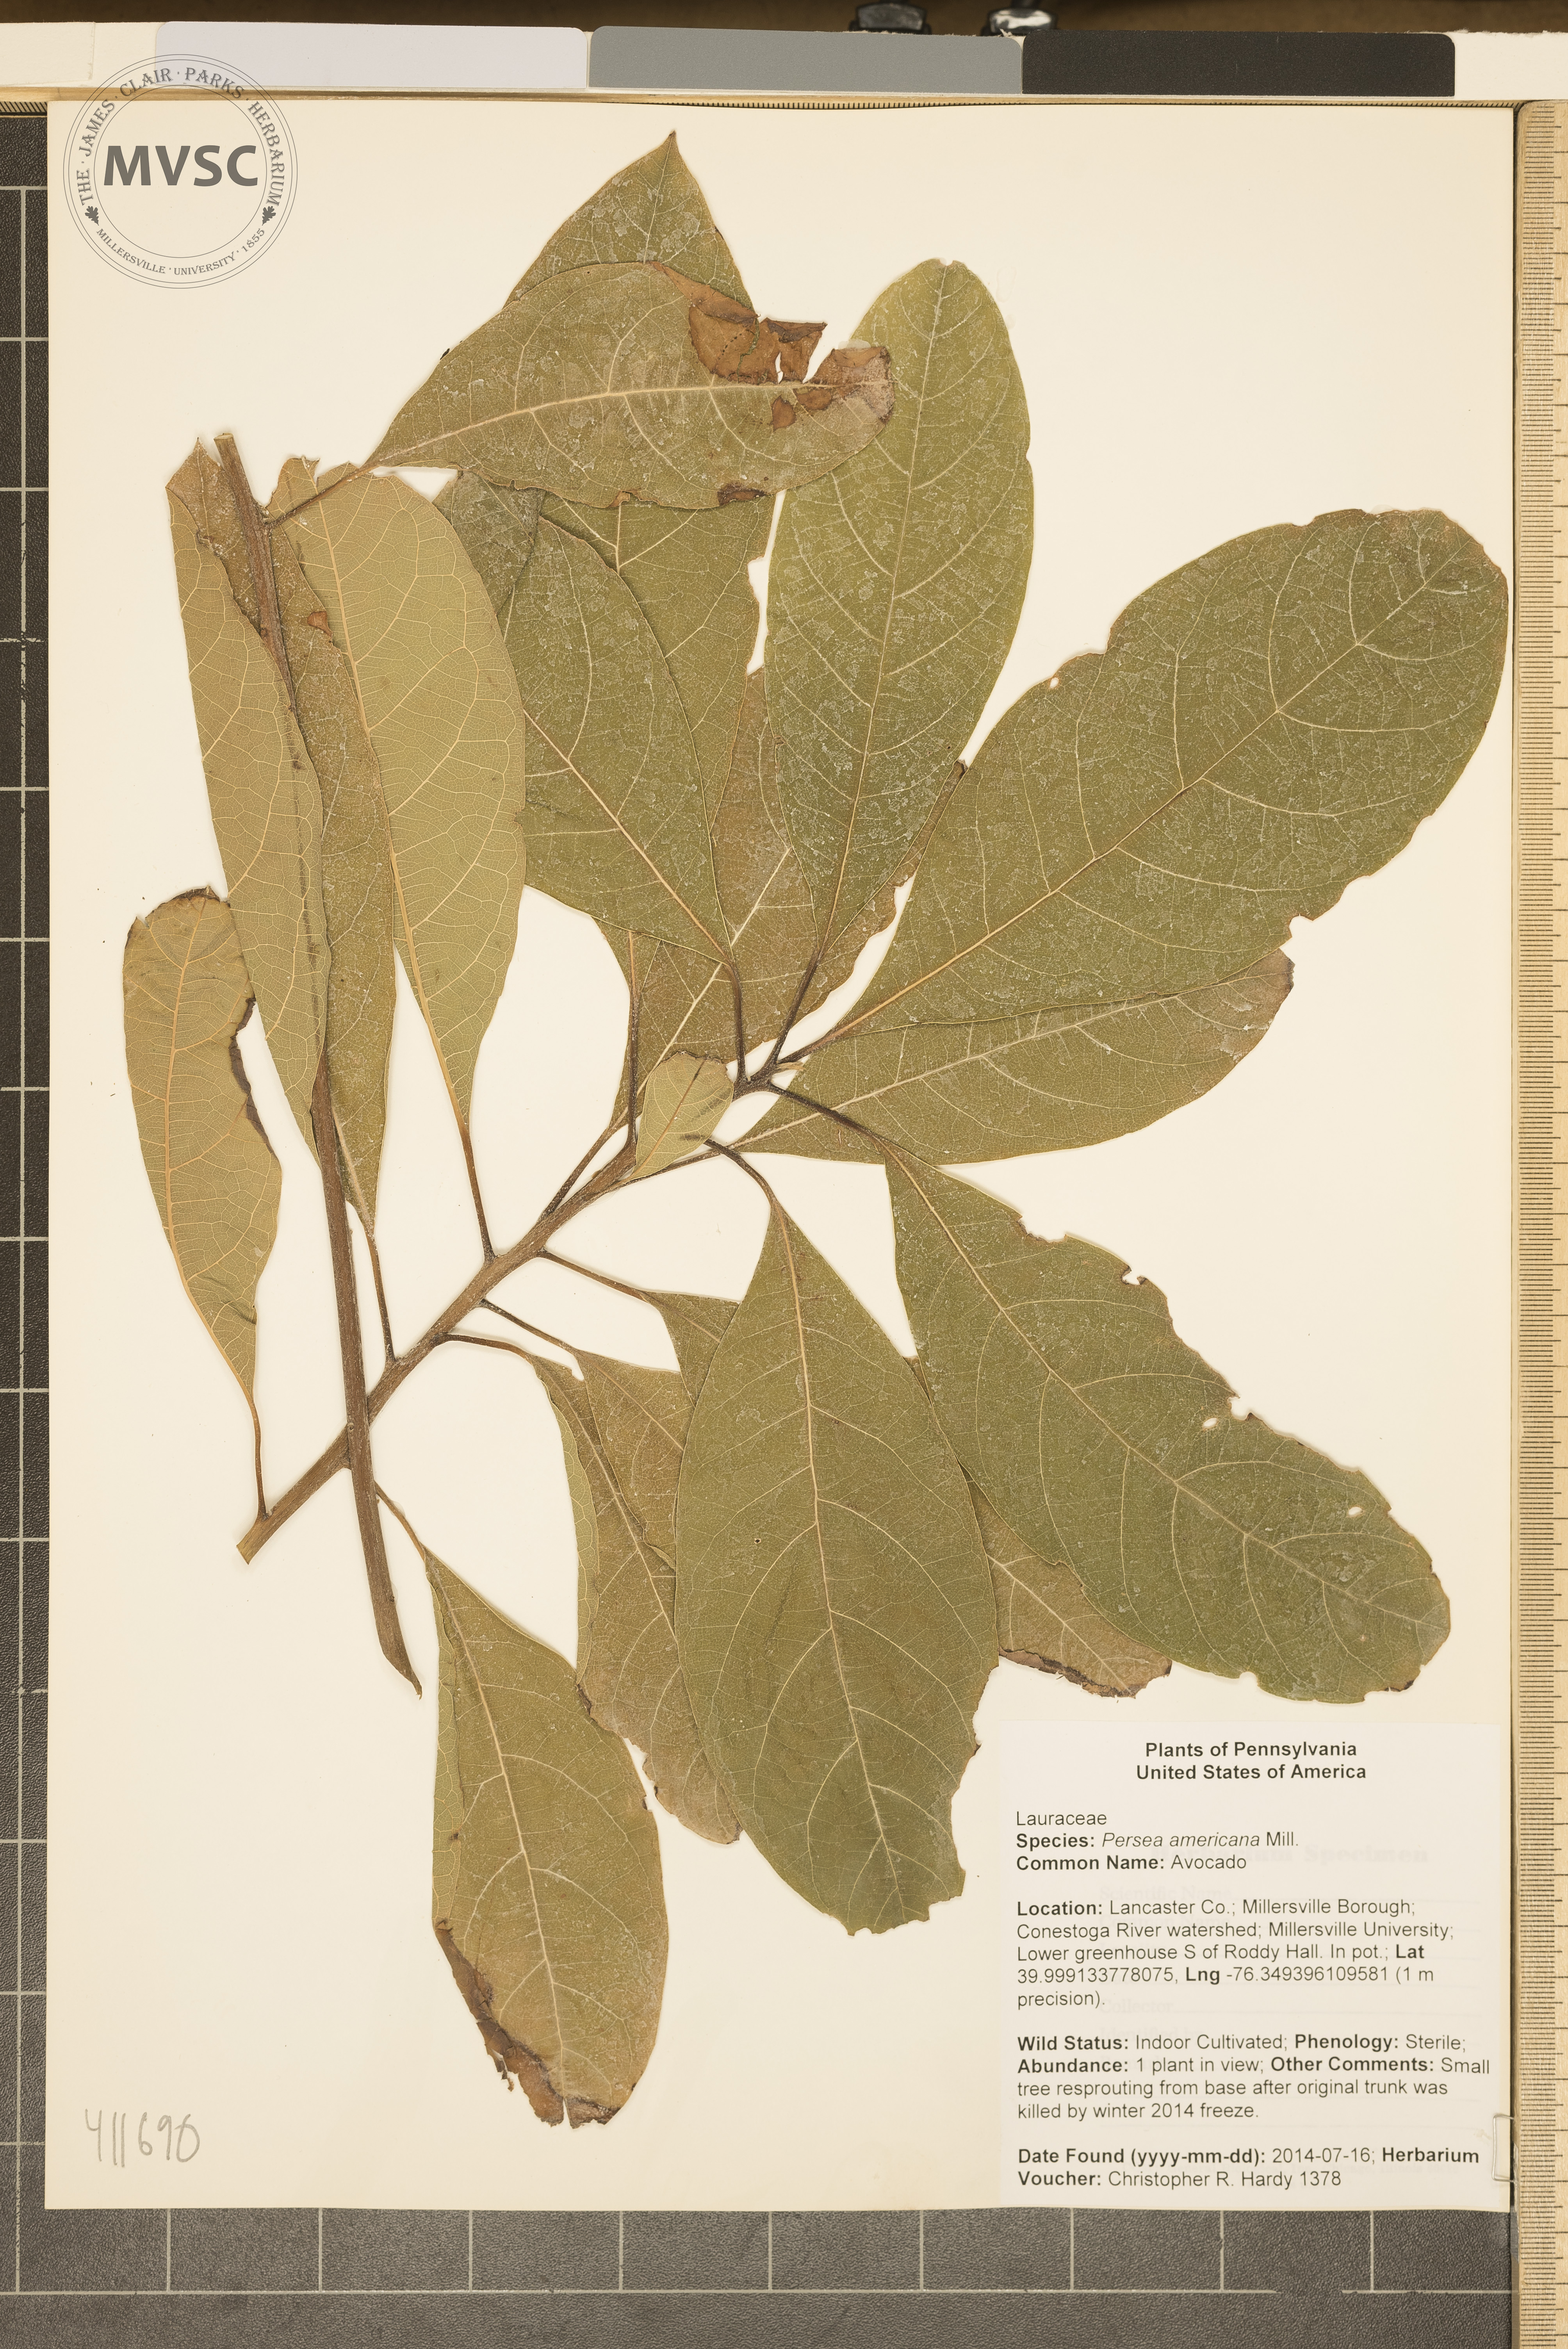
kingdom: Plantae
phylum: Tracheophyta
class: Magnoliopsida
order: Laurales
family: Lauraceae
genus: Persea
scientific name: Persea americana
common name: Avocado
